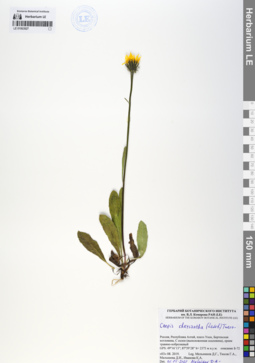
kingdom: Plantae
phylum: Tracheophyta
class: Magnoliopsida
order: Asterales
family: Asteraceae
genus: Crepis
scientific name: Crepis chrysantha
